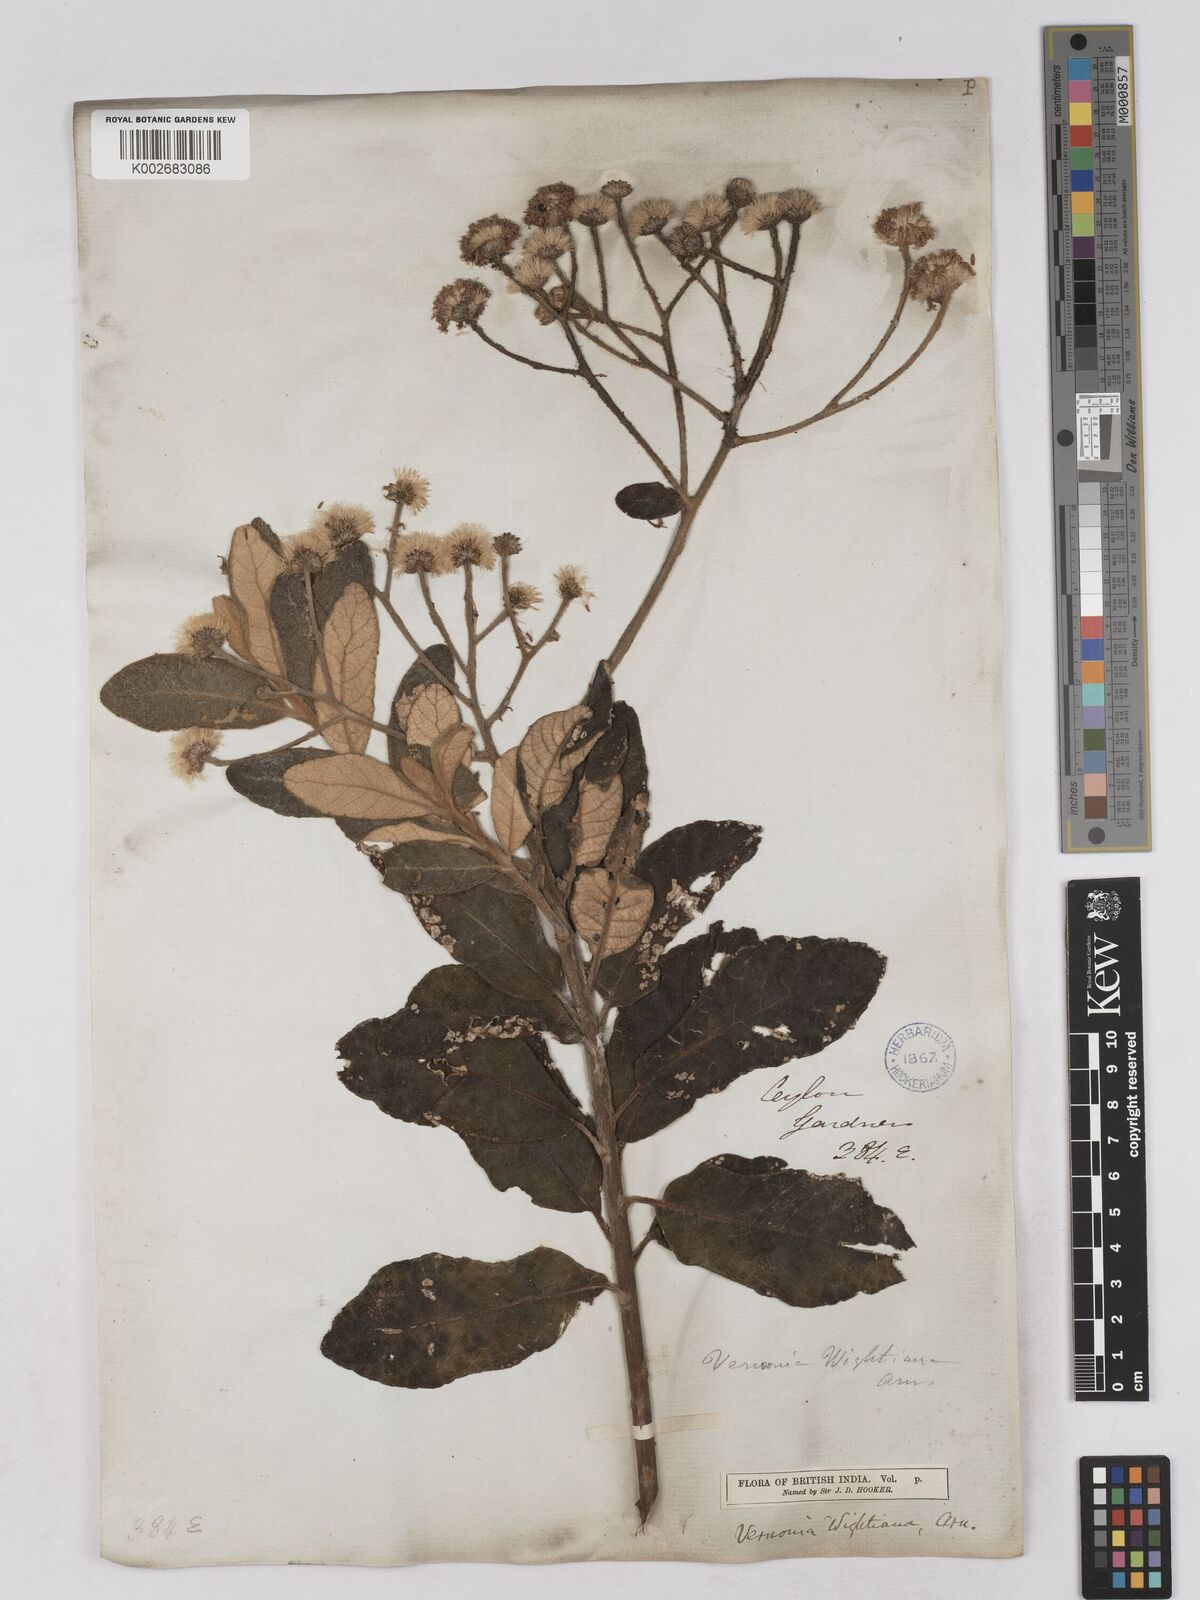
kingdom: Plantae
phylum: Tracheophyta
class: Magnoliopsida
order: Asterales
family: Asteraceae
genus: Uniyala
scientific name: Uniyala wightiana
